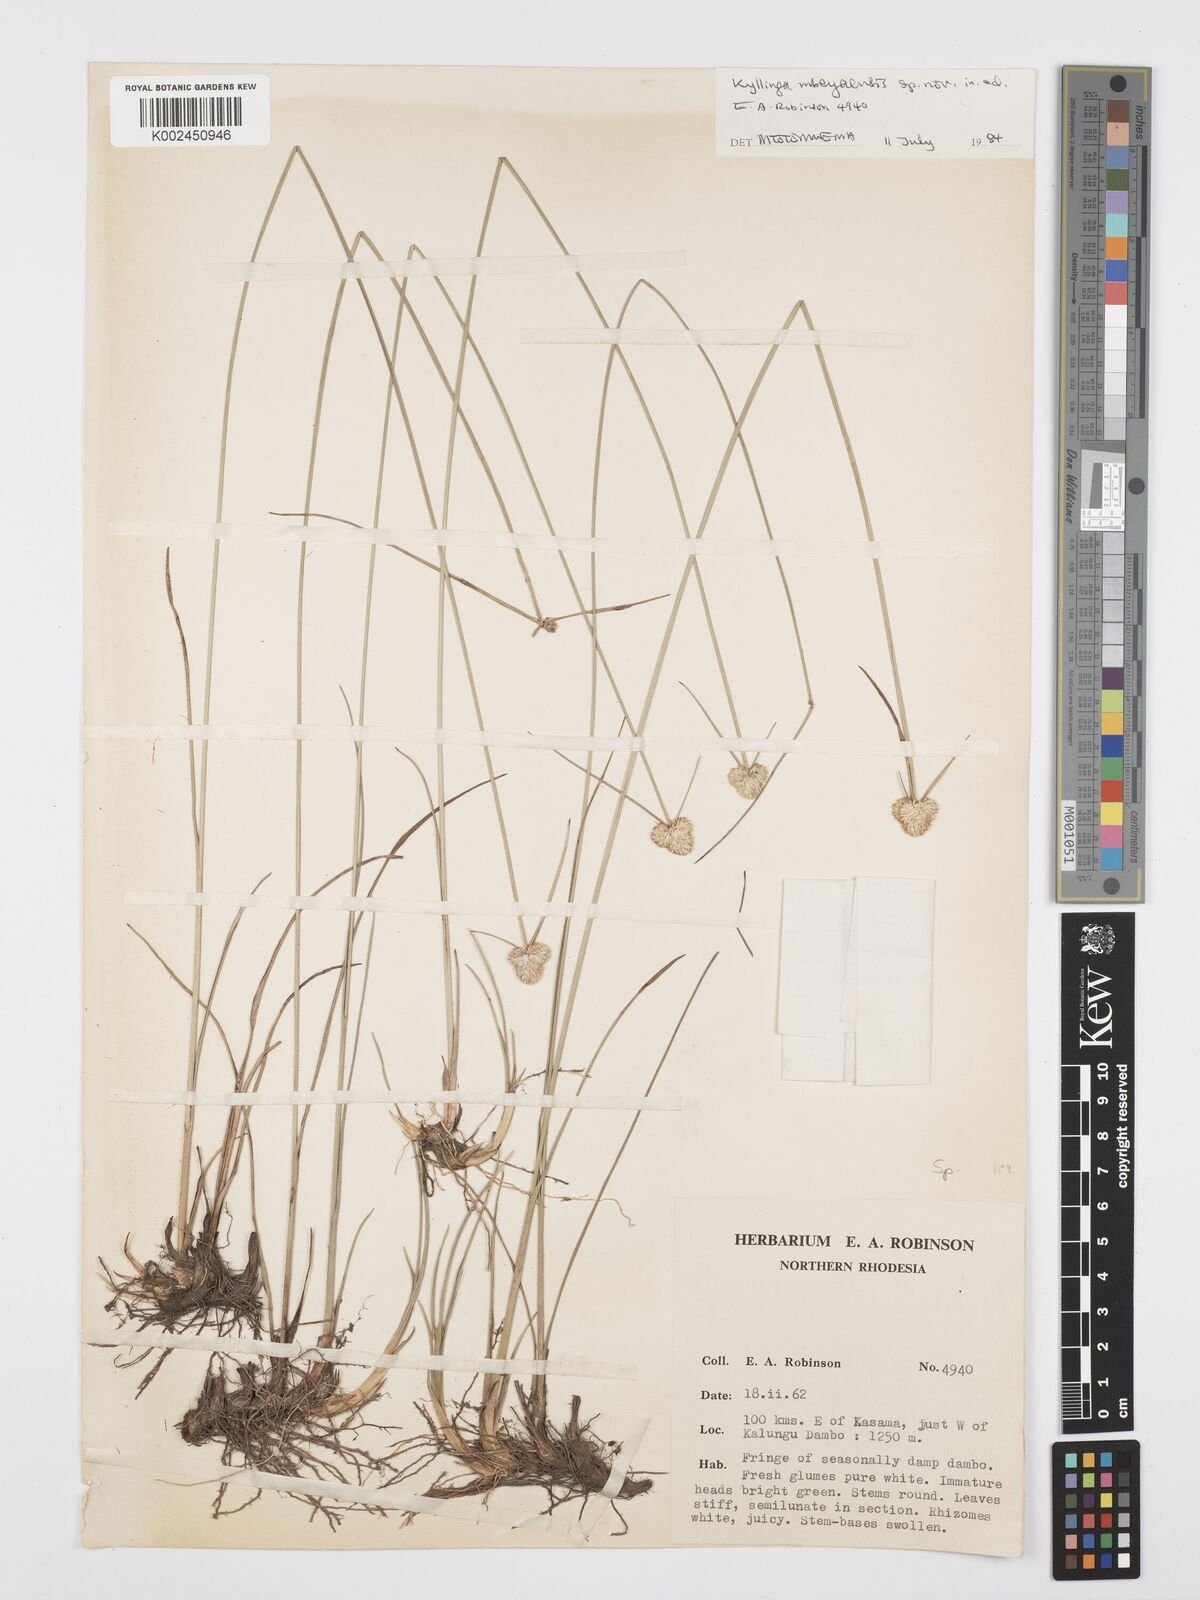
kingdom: Plantae
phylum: Tracheophyta
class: Liliopsida
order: Poales
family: Cyperaceae
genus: Cyperus
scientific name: Cyperus
